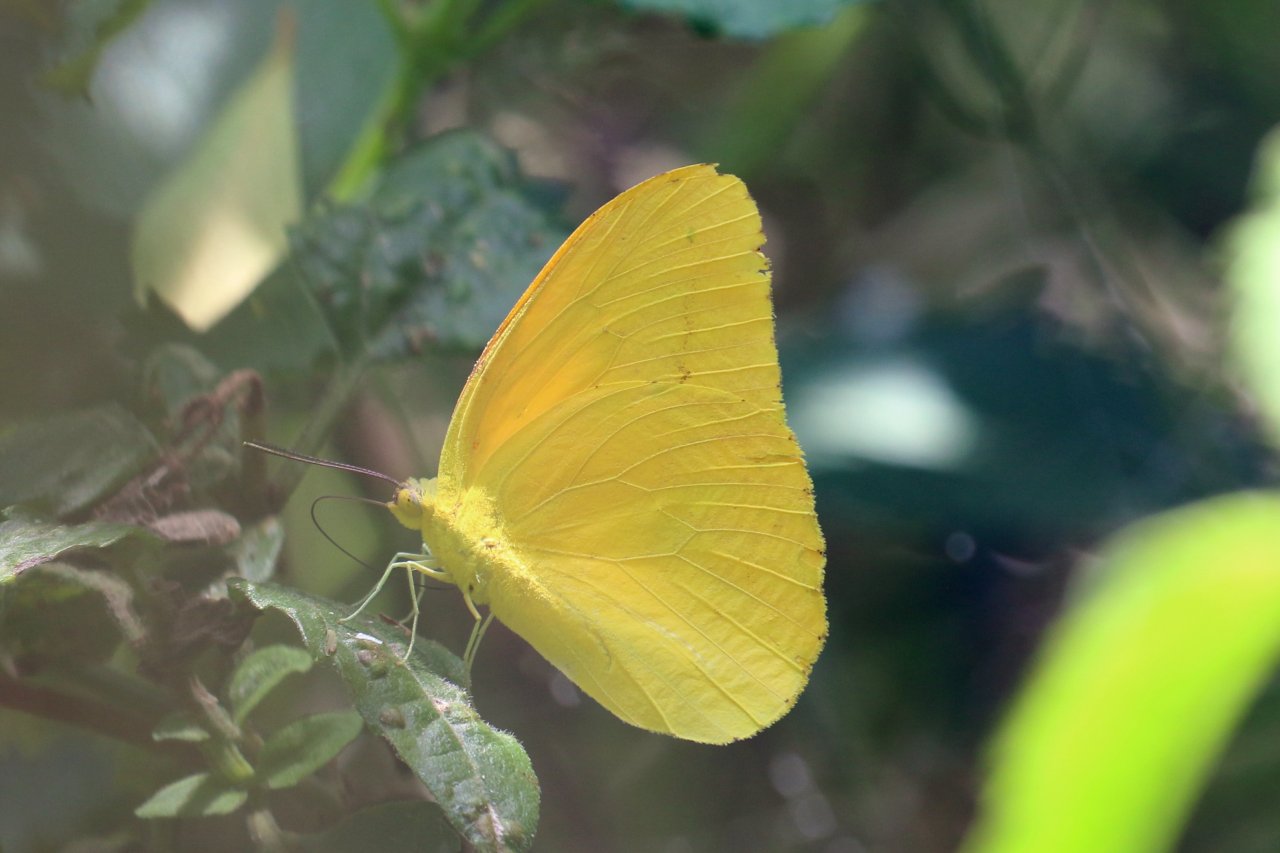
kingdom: Animalia
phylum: Arthropoda
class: Insecta
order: Lepidoptera
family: Pieridae
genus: Phoebis
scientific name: Phoebis agarithe
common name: Large Orange Sulphur
